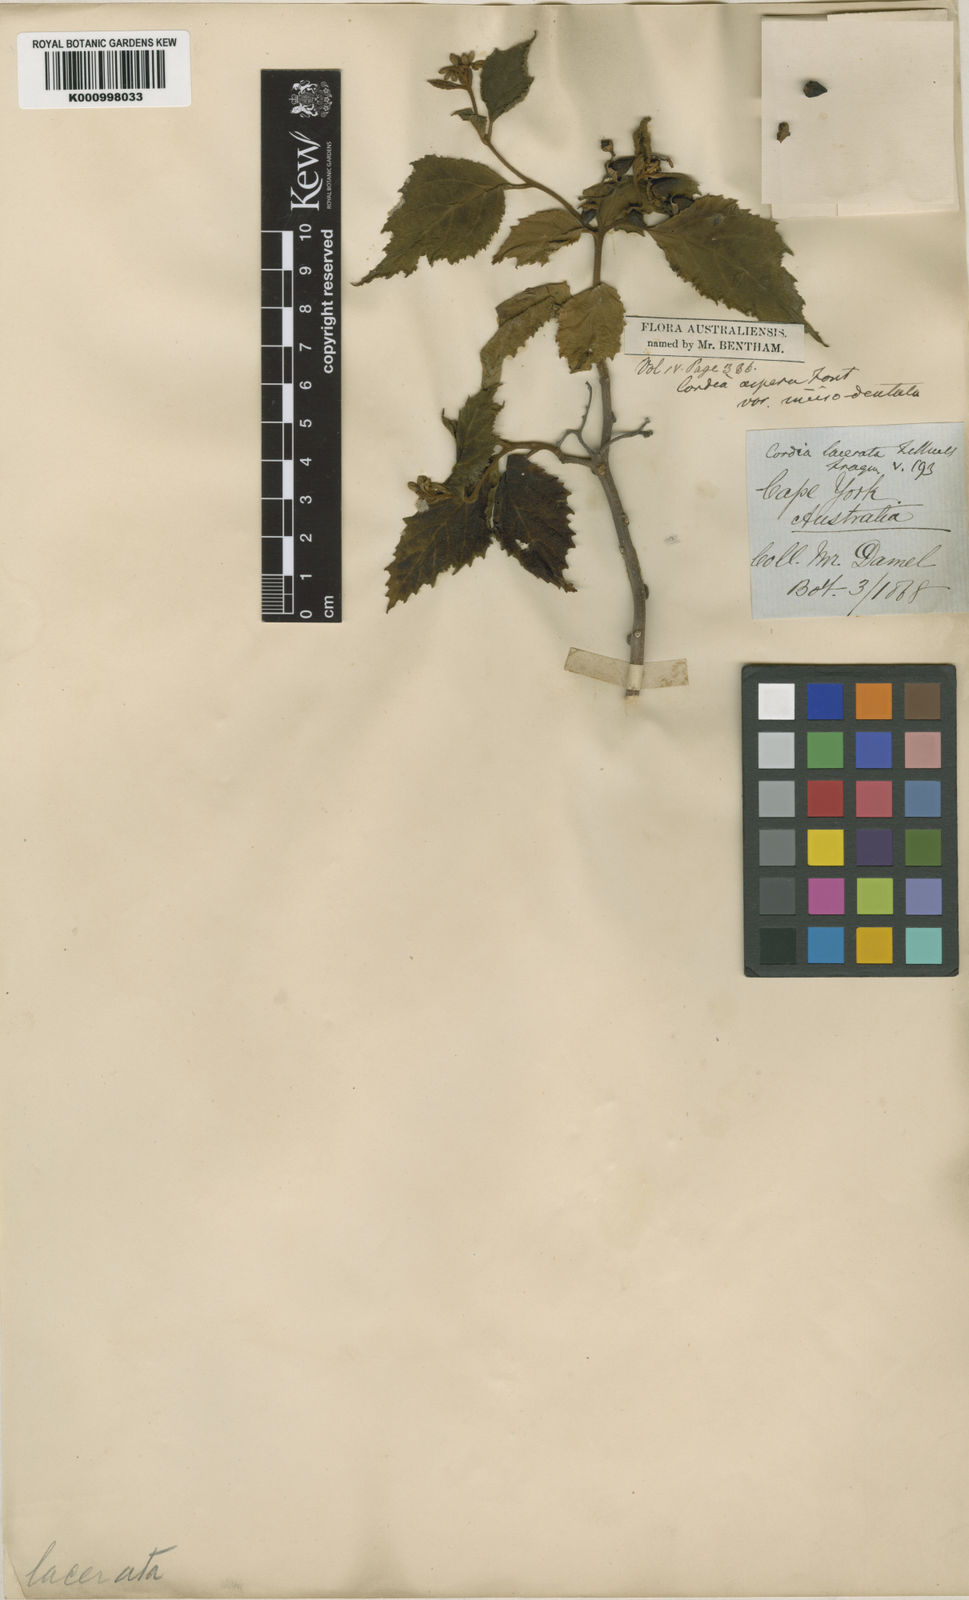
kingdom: Plantae
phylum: Tracheophyta
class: Magnoliopsida
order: Boraginales
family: Cordiaceae
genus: Cordia
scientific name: Cordia aspera
